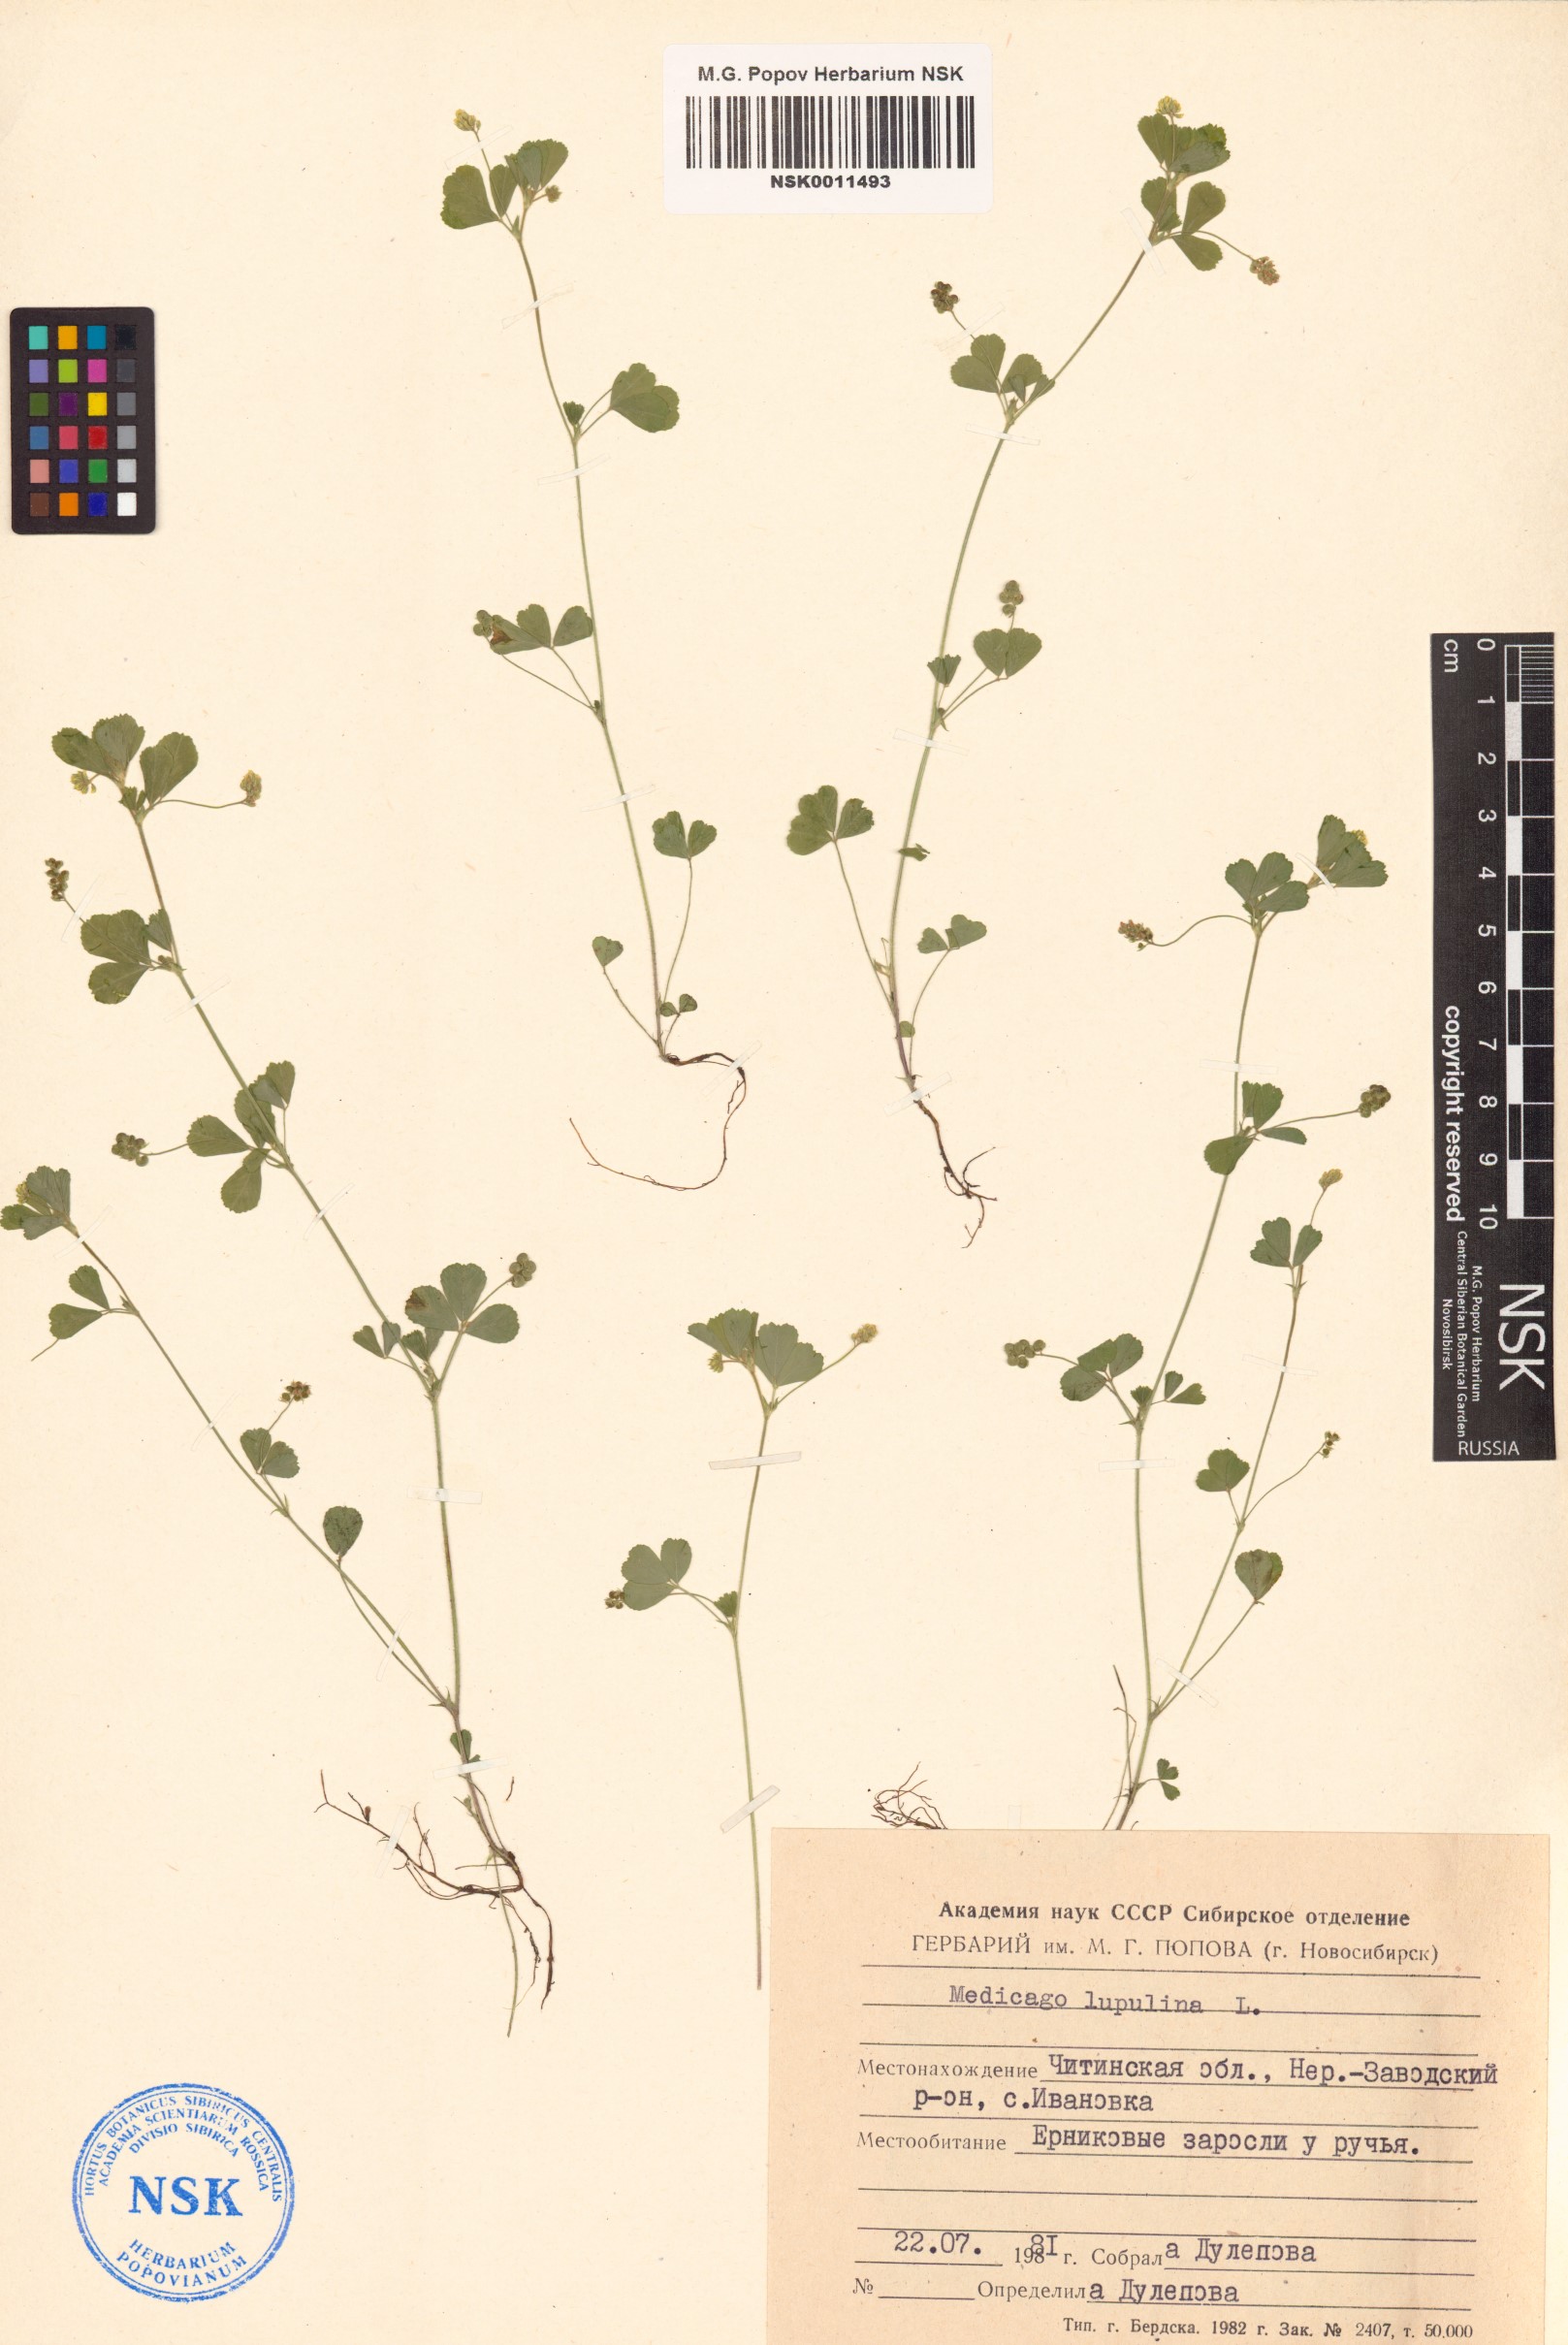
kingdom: Plantae
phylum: Tracheophyta
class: Magnoliopsida
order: Fabales
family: Fabaceae
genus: Medicago
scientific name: Medicago lupulina
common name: Black medick
